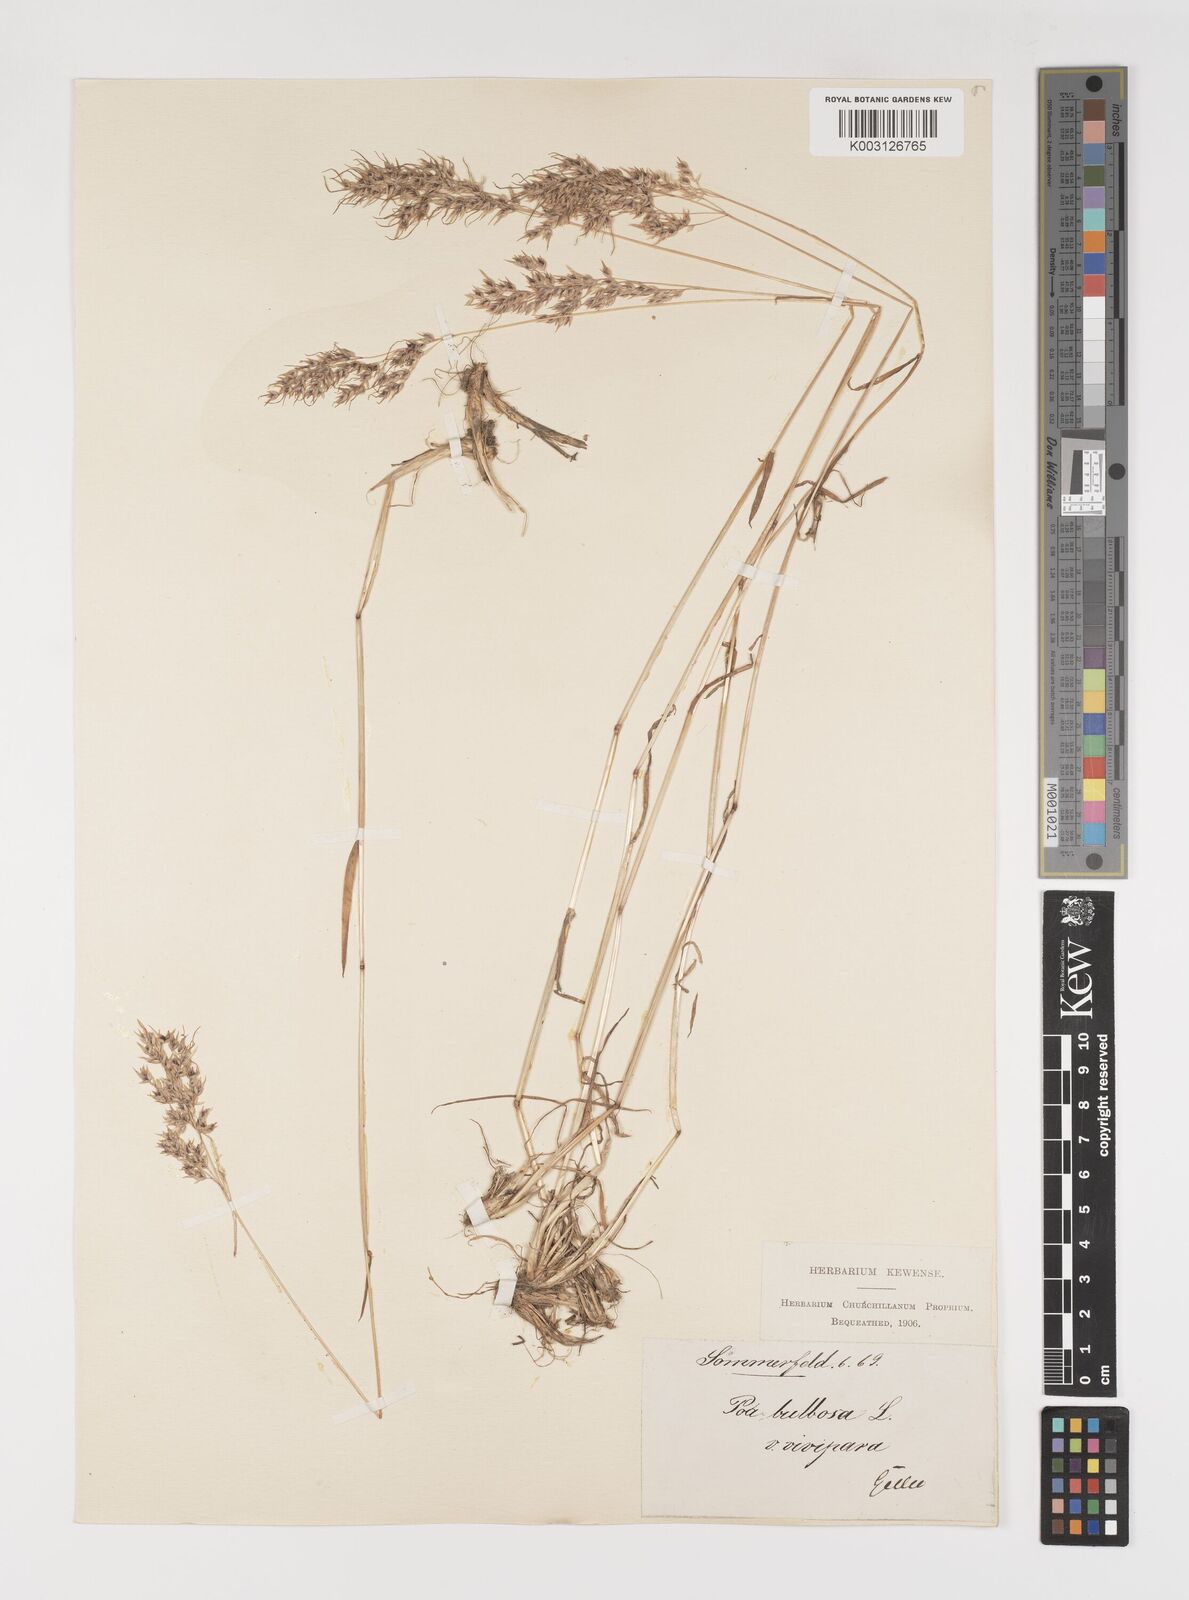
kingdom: Plantae
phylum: Tracheophyta
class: Liliopsida
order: Poales
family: Poaceae
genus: Poa
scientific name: Poa bulbosa
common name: Bulbous bluegrass
